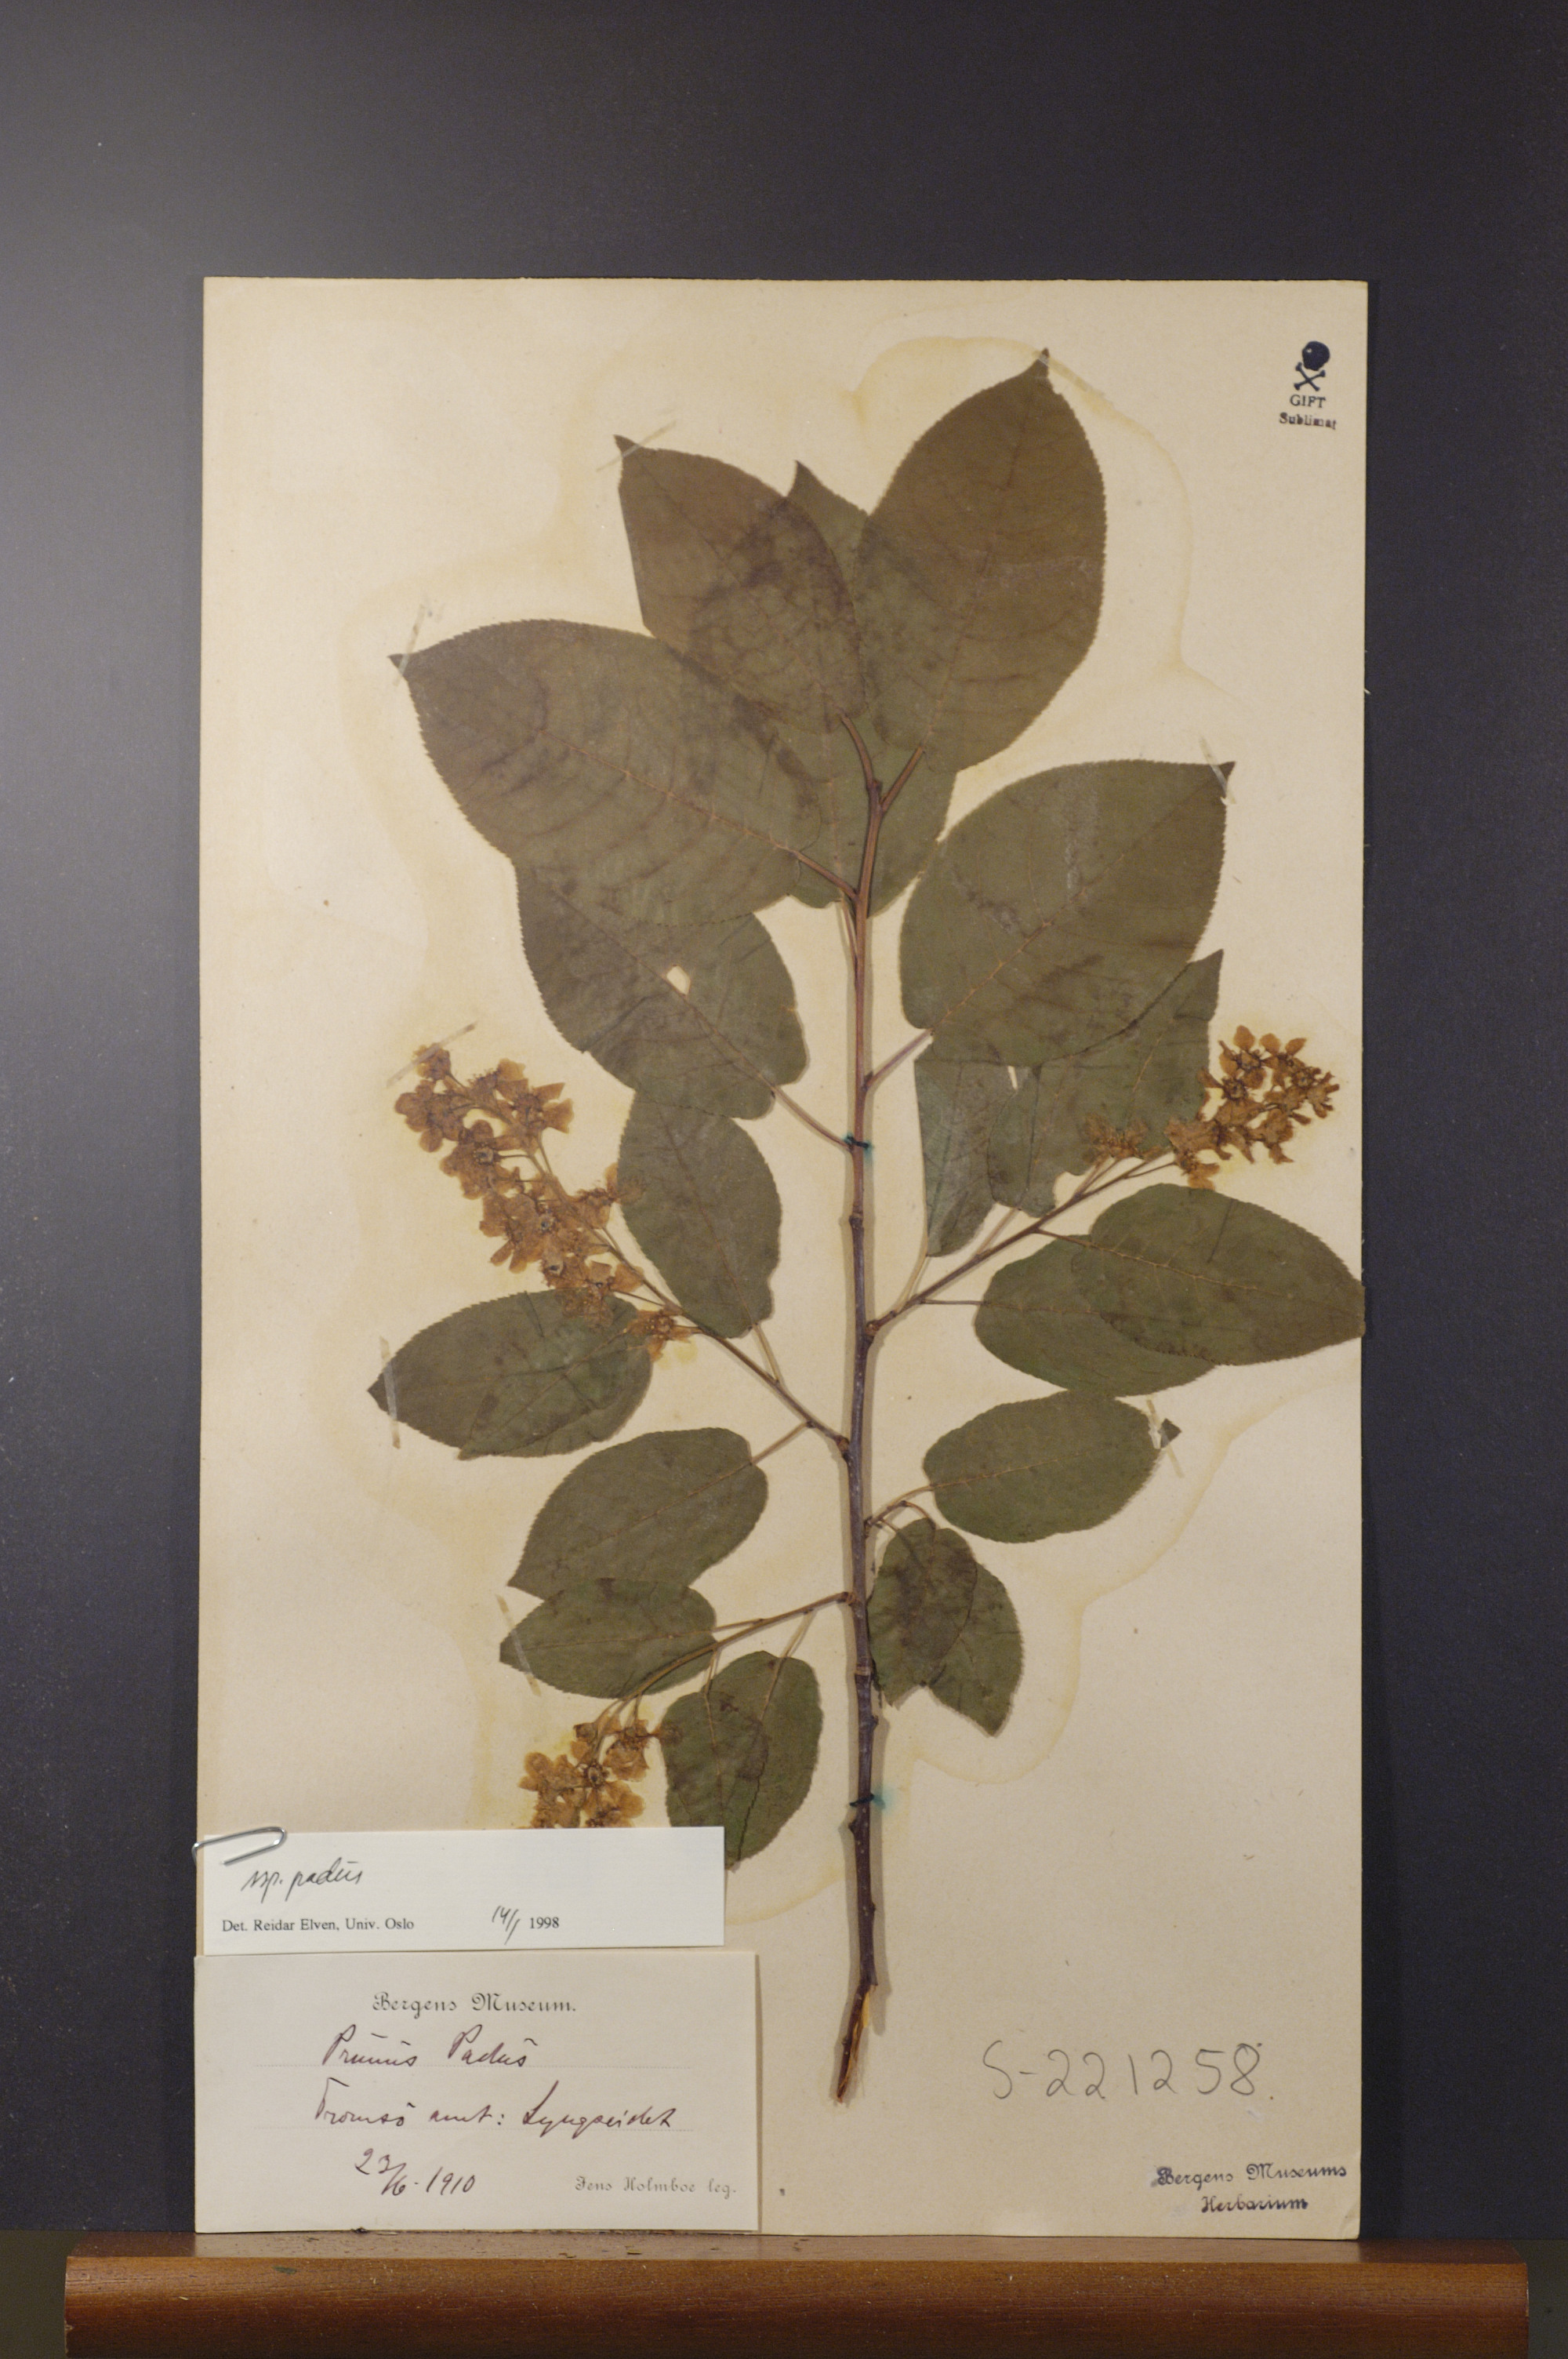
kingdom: Plantae
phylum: Tracheophyta
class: Magnoliopsida
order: Rosales
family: Rosaceae
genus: Prunus
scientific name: Prunus padus
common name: Bird cherry
